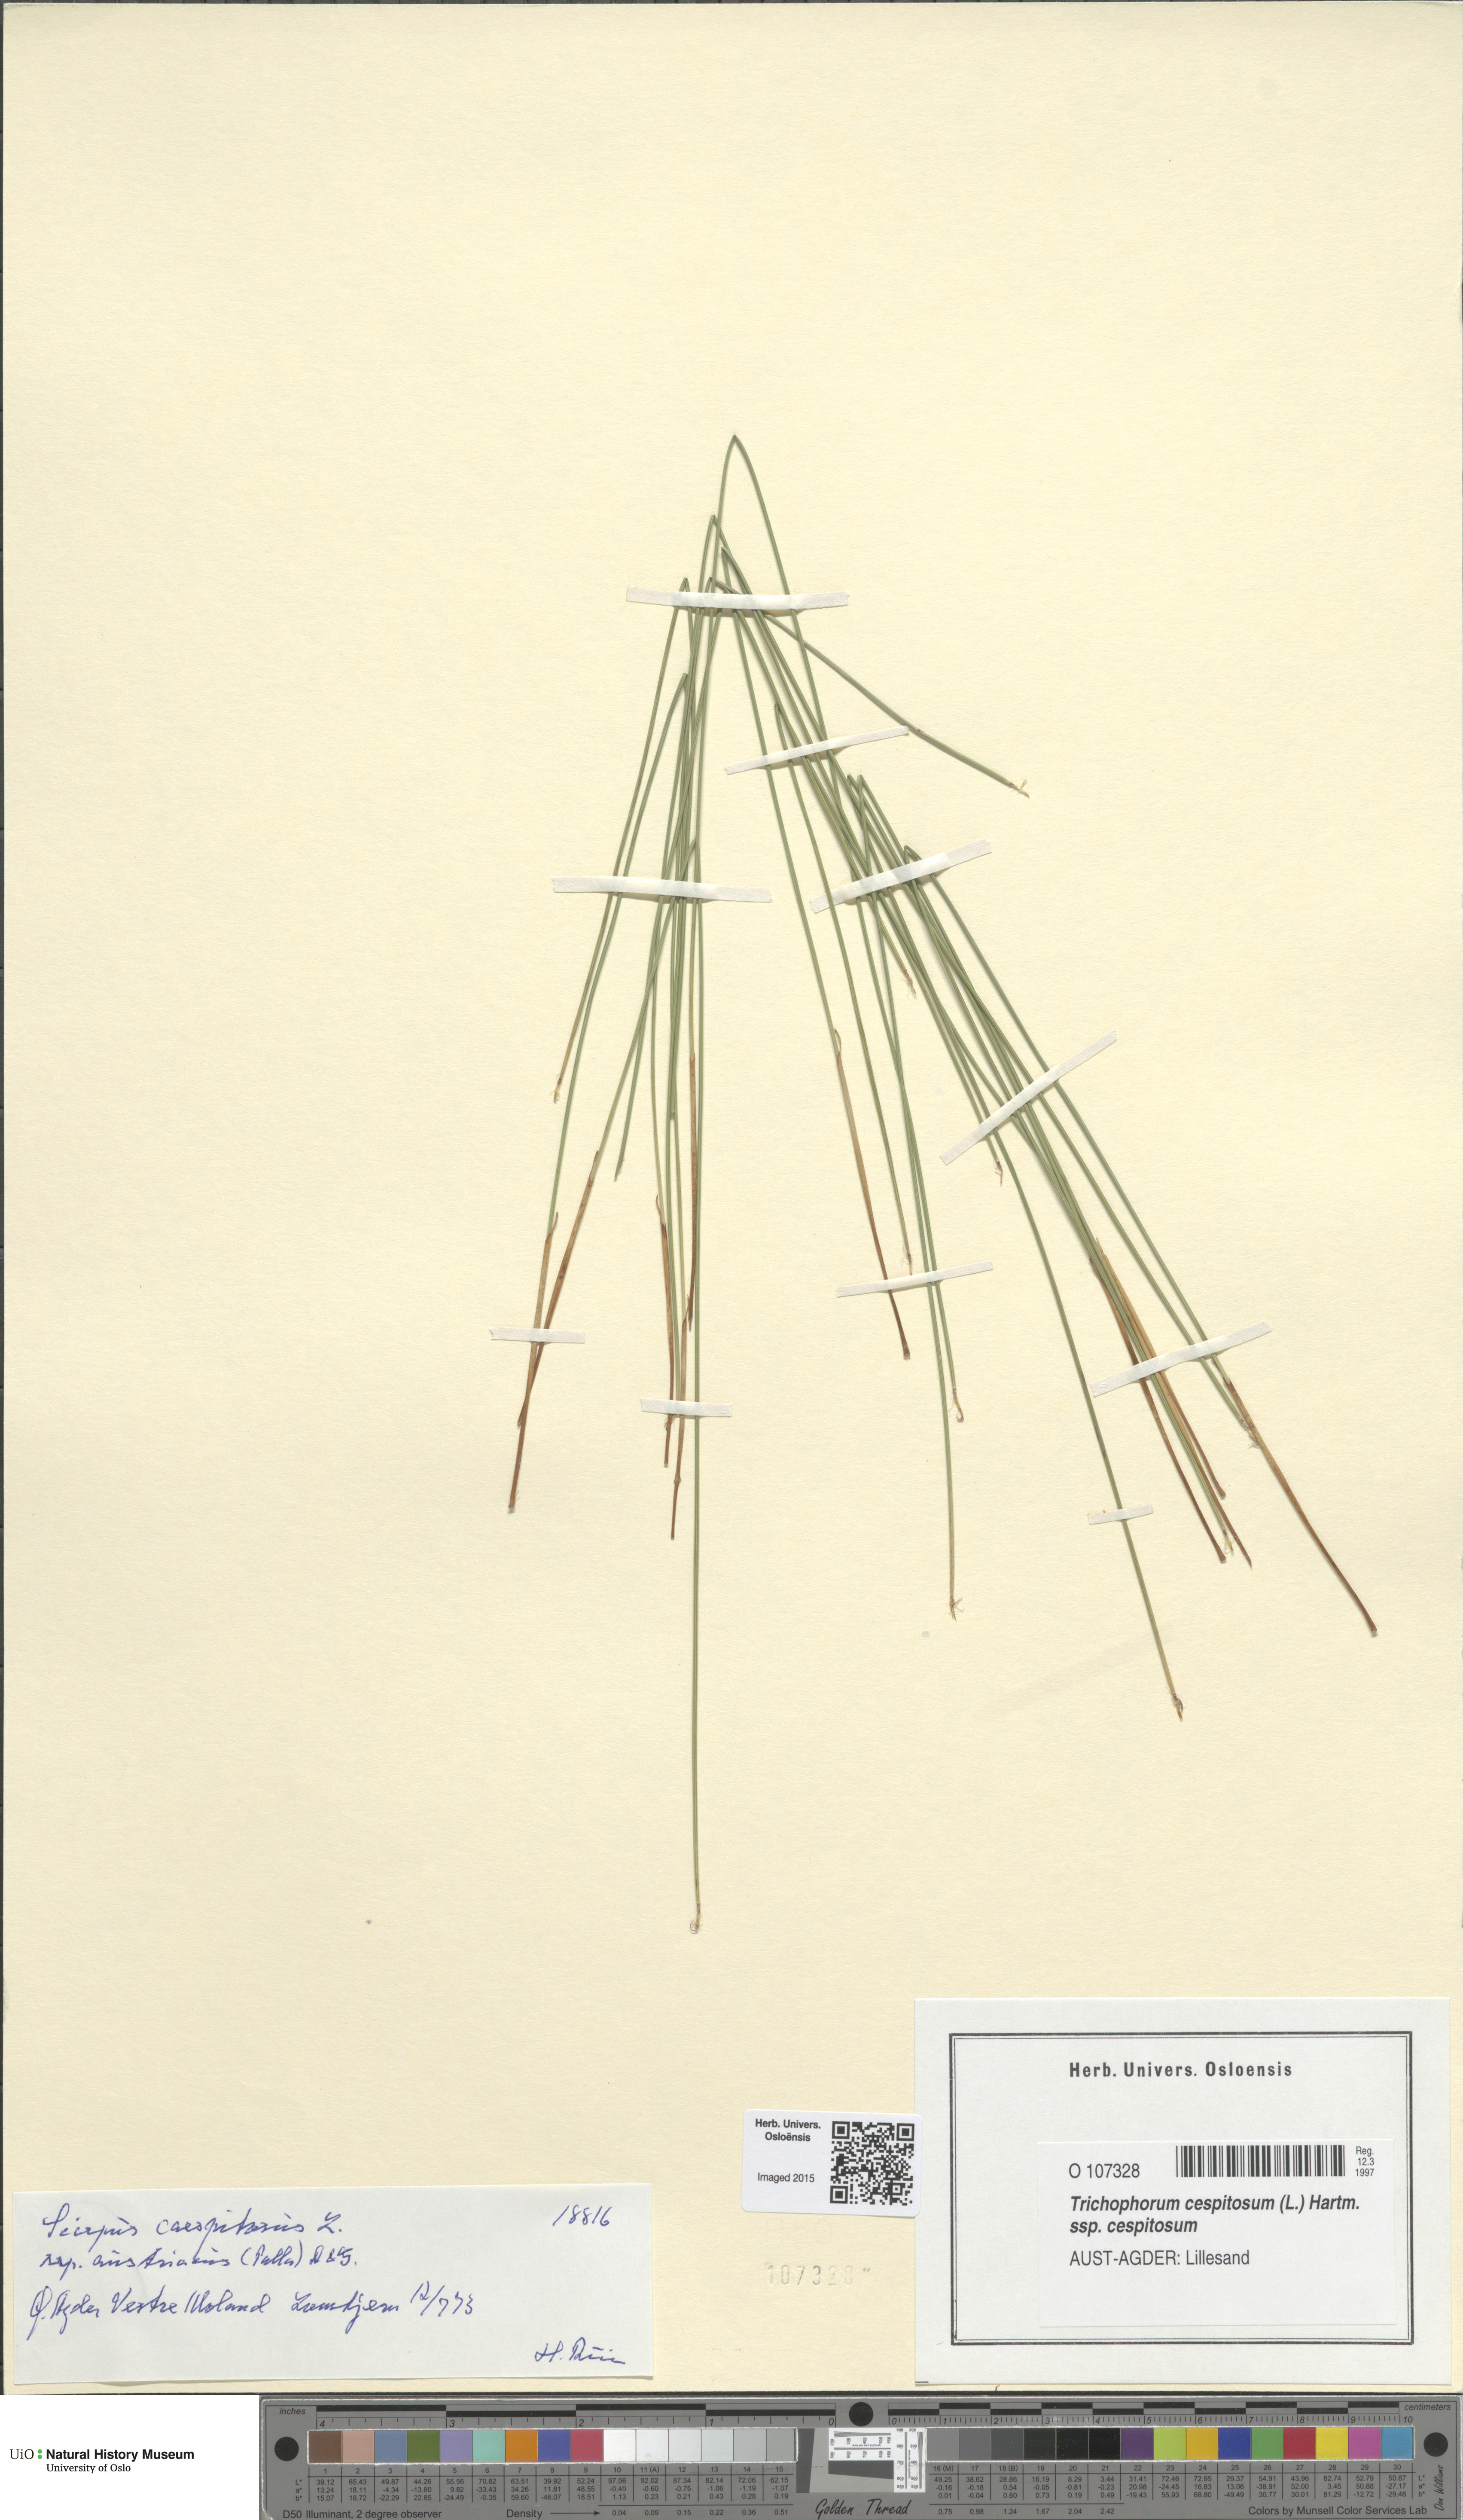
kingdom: Plantae
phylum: Tracheophyta
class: Liliopsida
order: Poales
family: Cyperaceae
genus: Trichophorum
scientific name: Trichophorum cespitosum
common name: Cespitose bulrush
